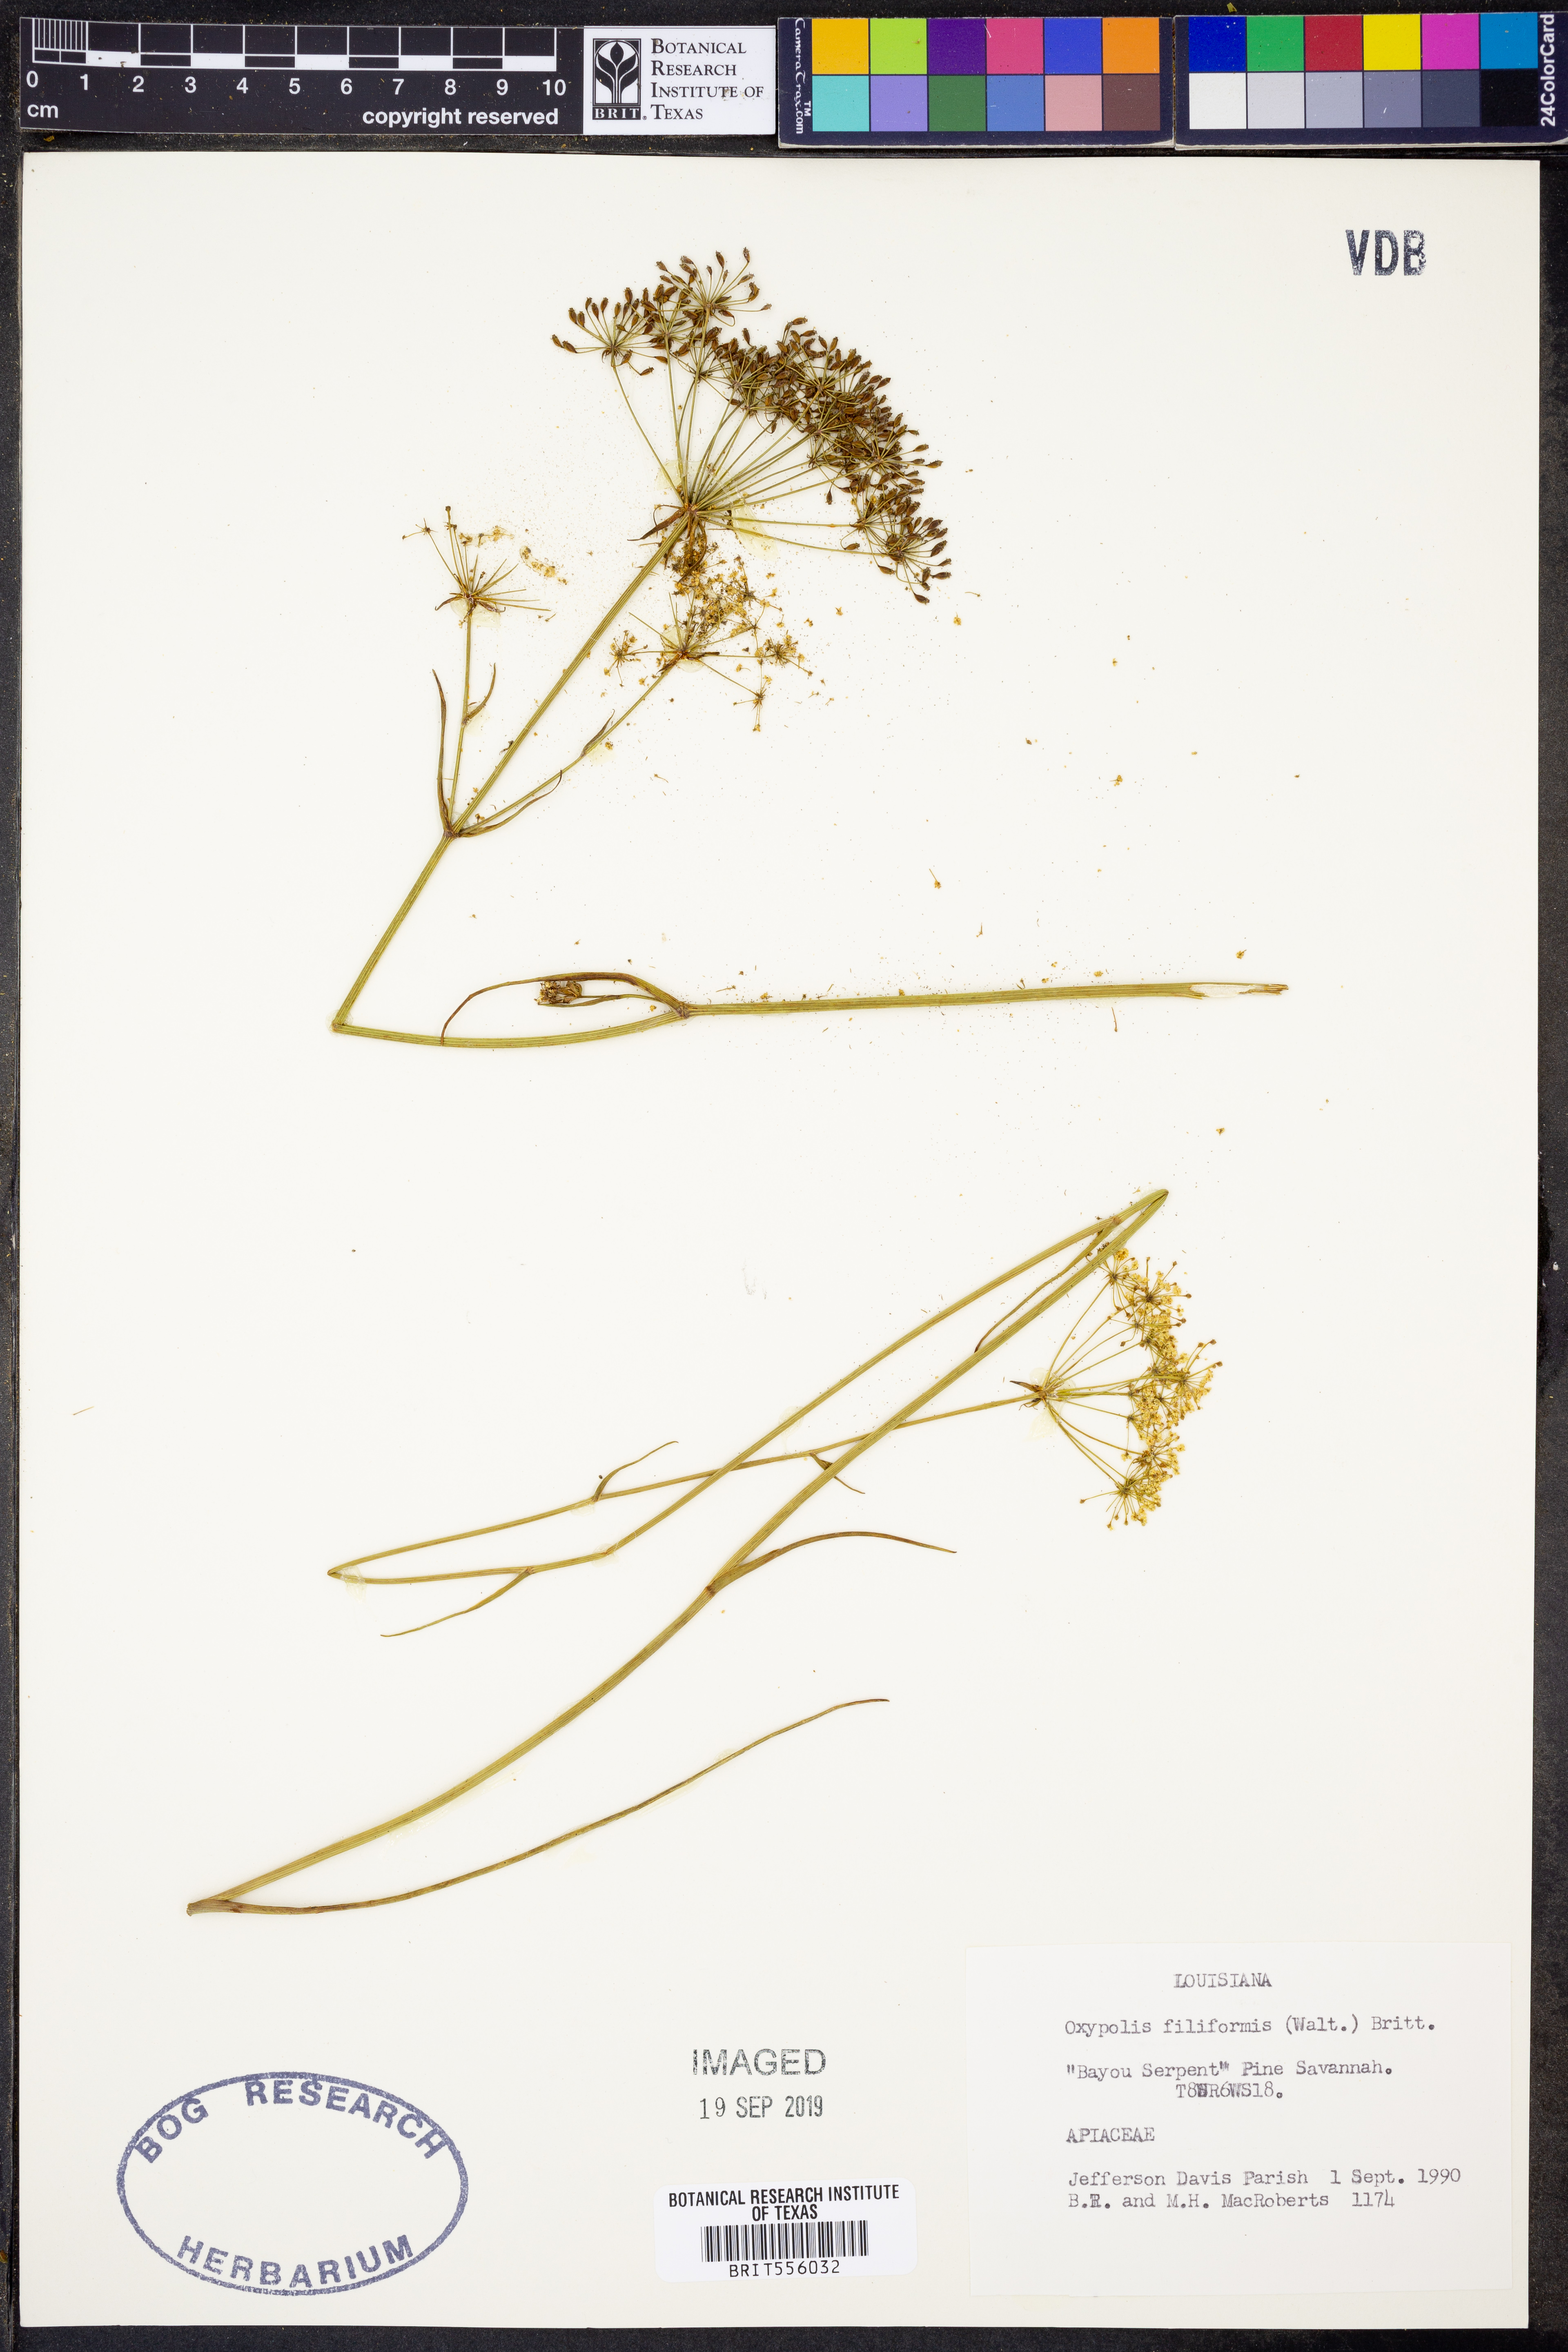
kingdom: Plantae
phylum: Tracheophyta
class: Magnoliopsida
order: Apiales
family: Apiaceae
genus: Tiedemannia
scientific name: Tiedemannia filiformis
